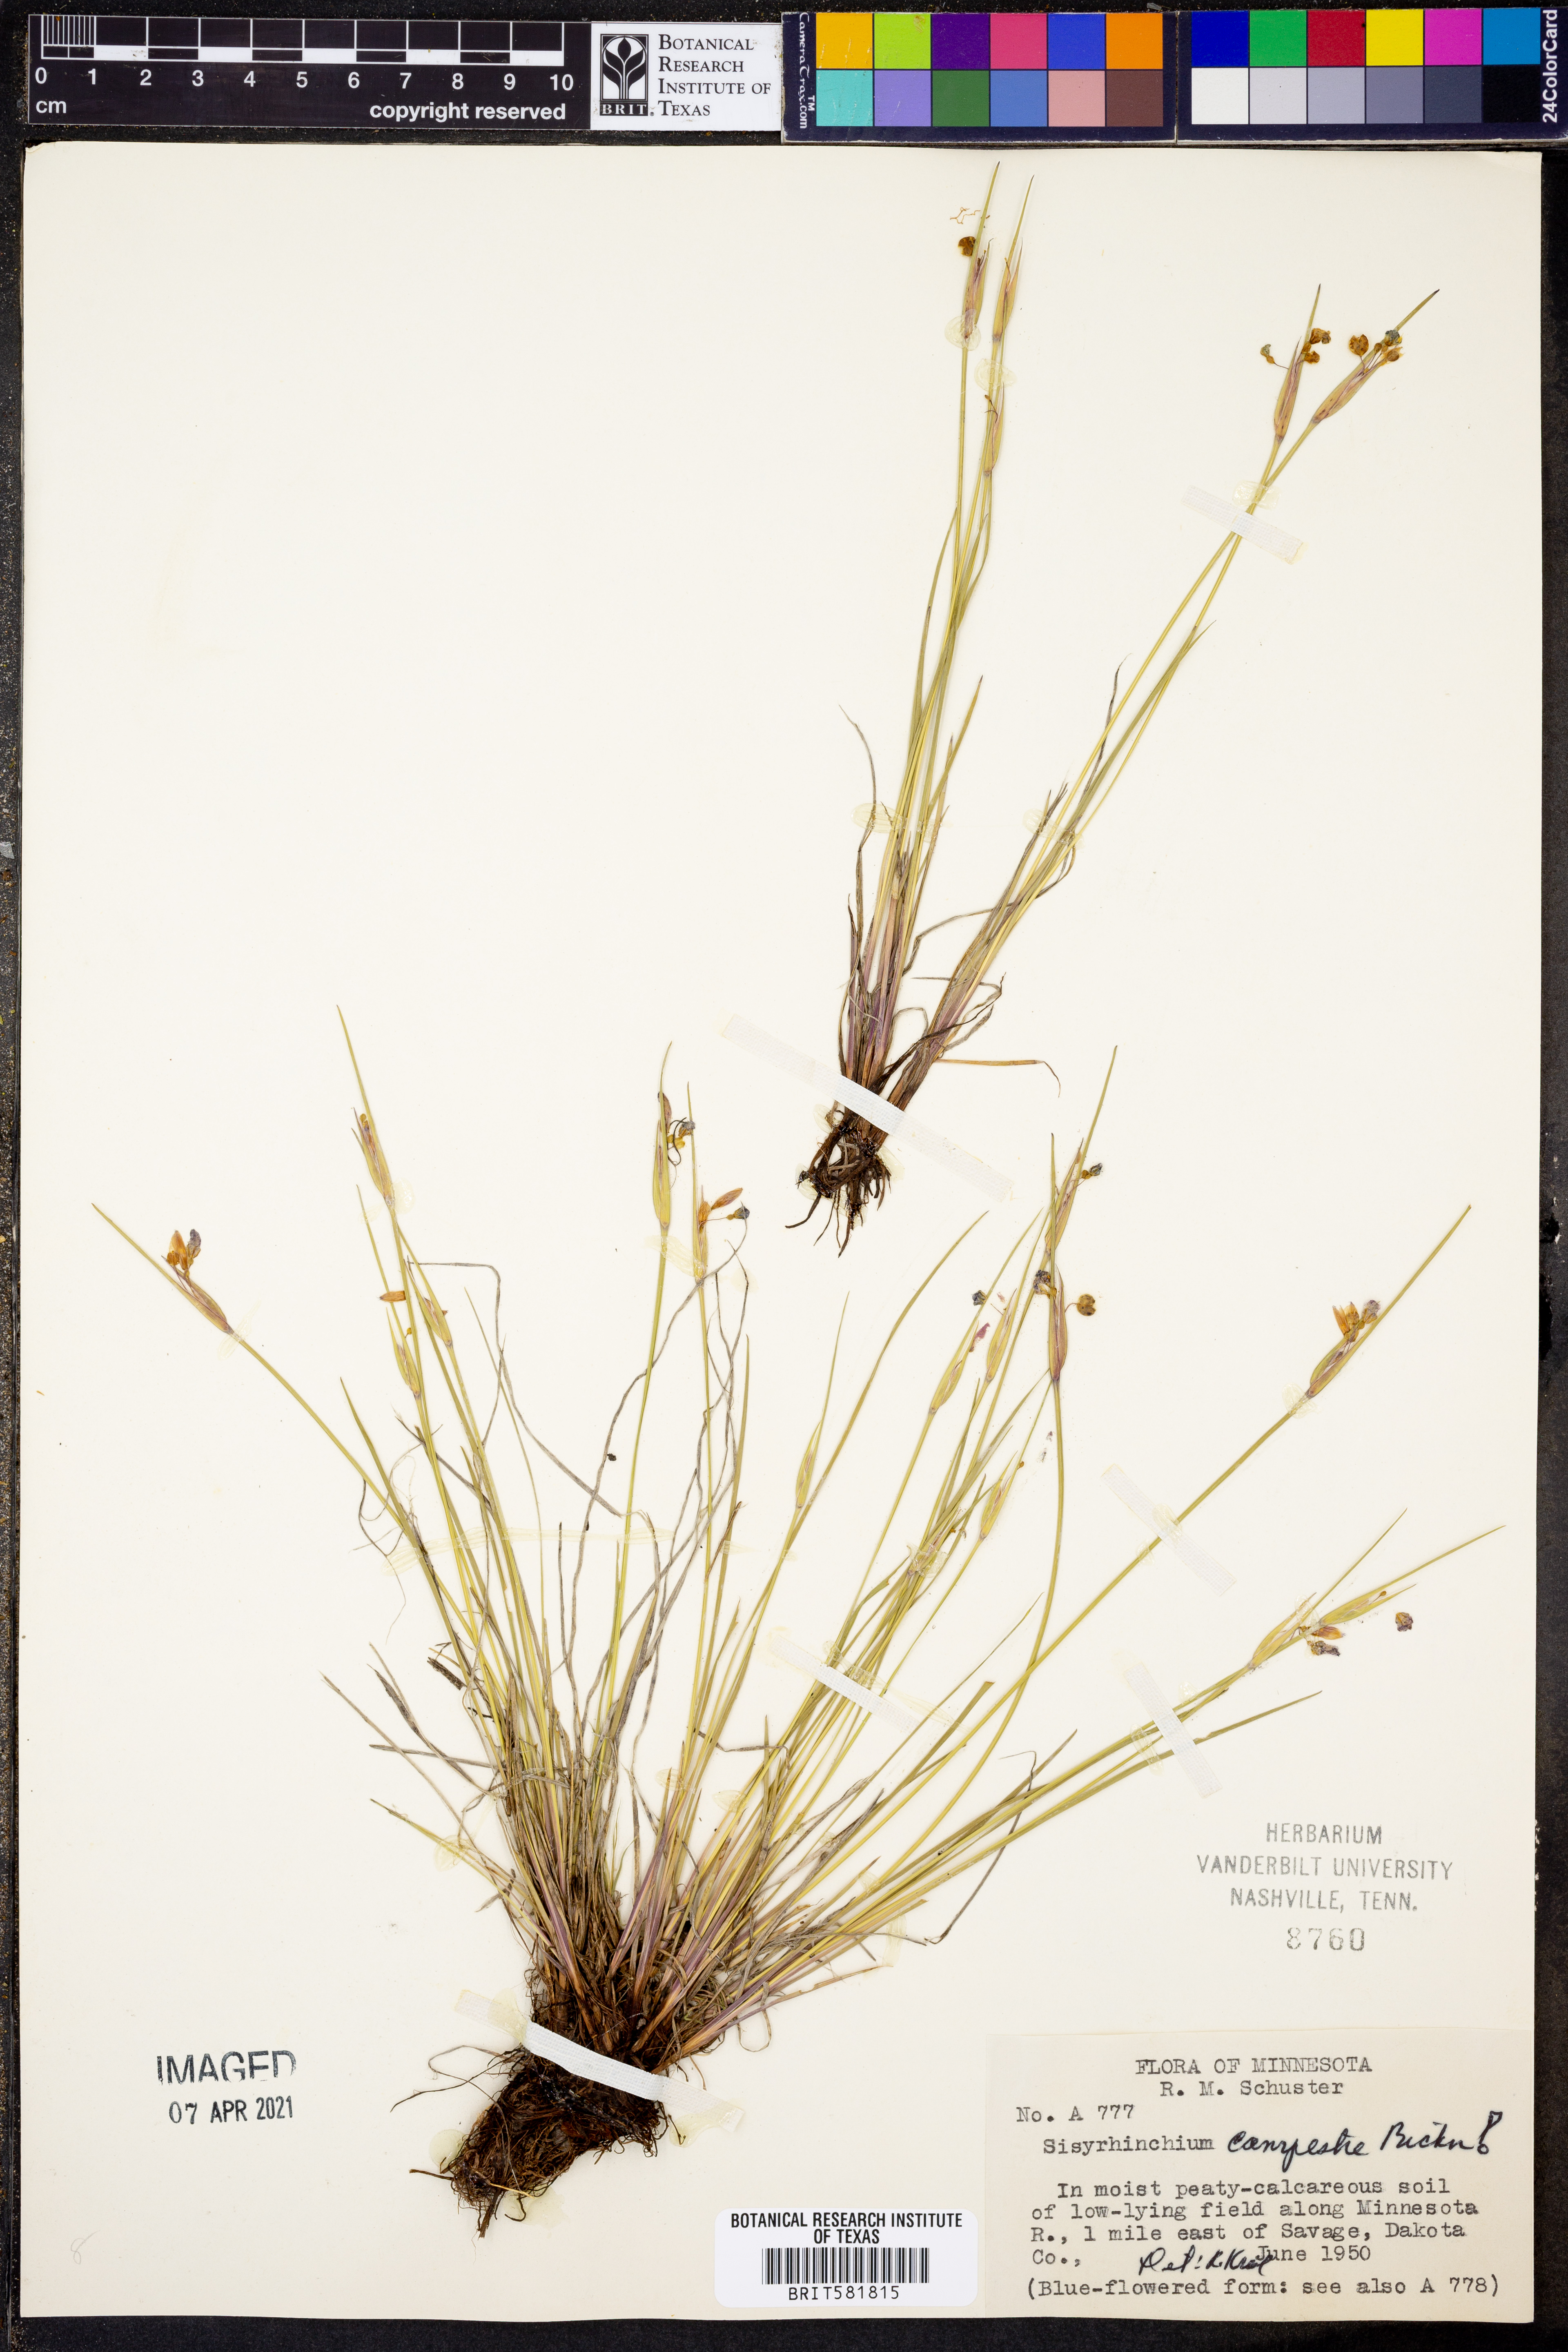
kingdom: Plantae
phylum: Tracheophyta
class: Liliopsida
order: Asparagales
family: Iridaceae
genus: Sisyrinchium
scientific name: Sisyrinchium campestre
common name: Prairie blue-eyed-grass
